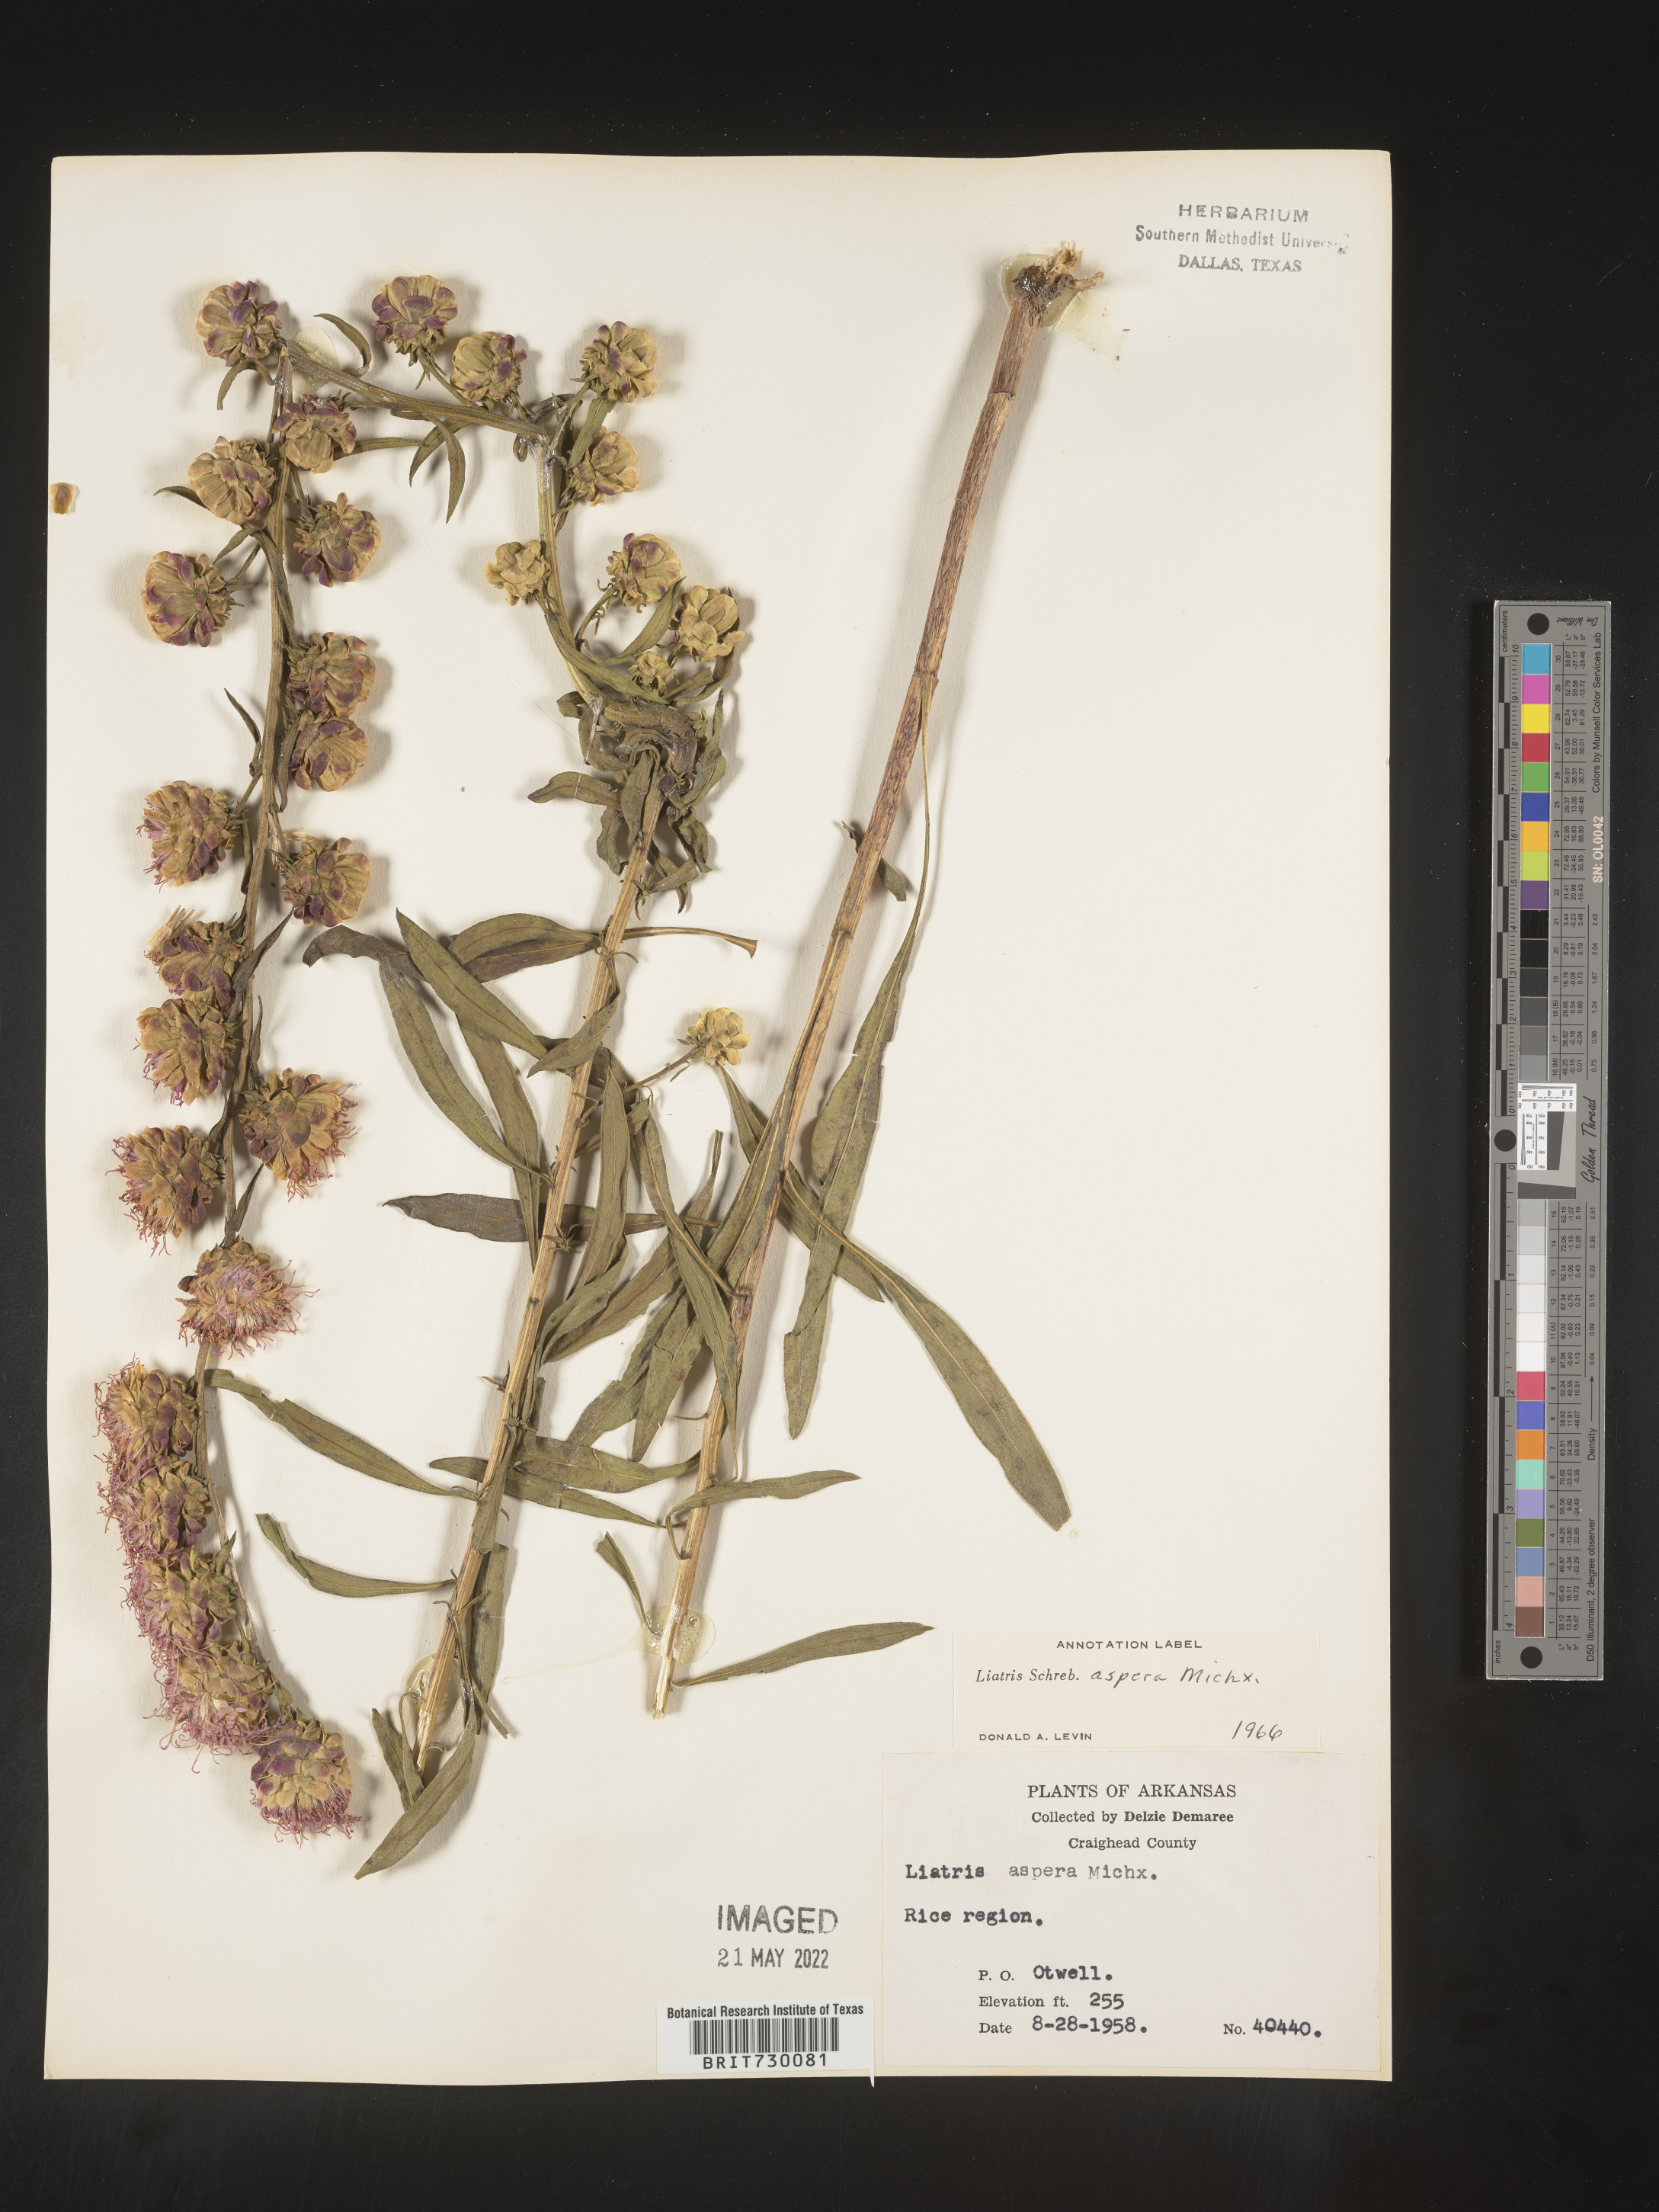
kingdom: Plantae
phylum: Tracheophyta
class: Magnoliopsida
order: Asterales
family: Asteraceae
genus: Liatris
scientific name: Liatris aspera
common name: Lacerate blazing-star
